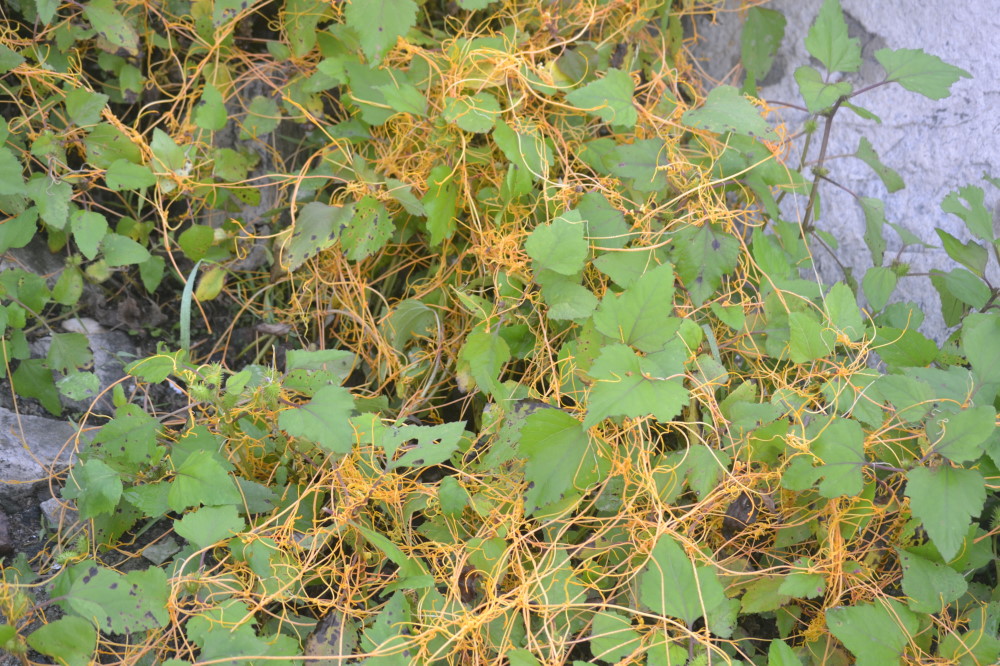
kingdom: Plantae
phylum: Tracheophyta
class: Magnoliopsida
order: Solanales
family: Convolvulaceae
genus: Cuscuta
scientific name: Cuscuta australis
